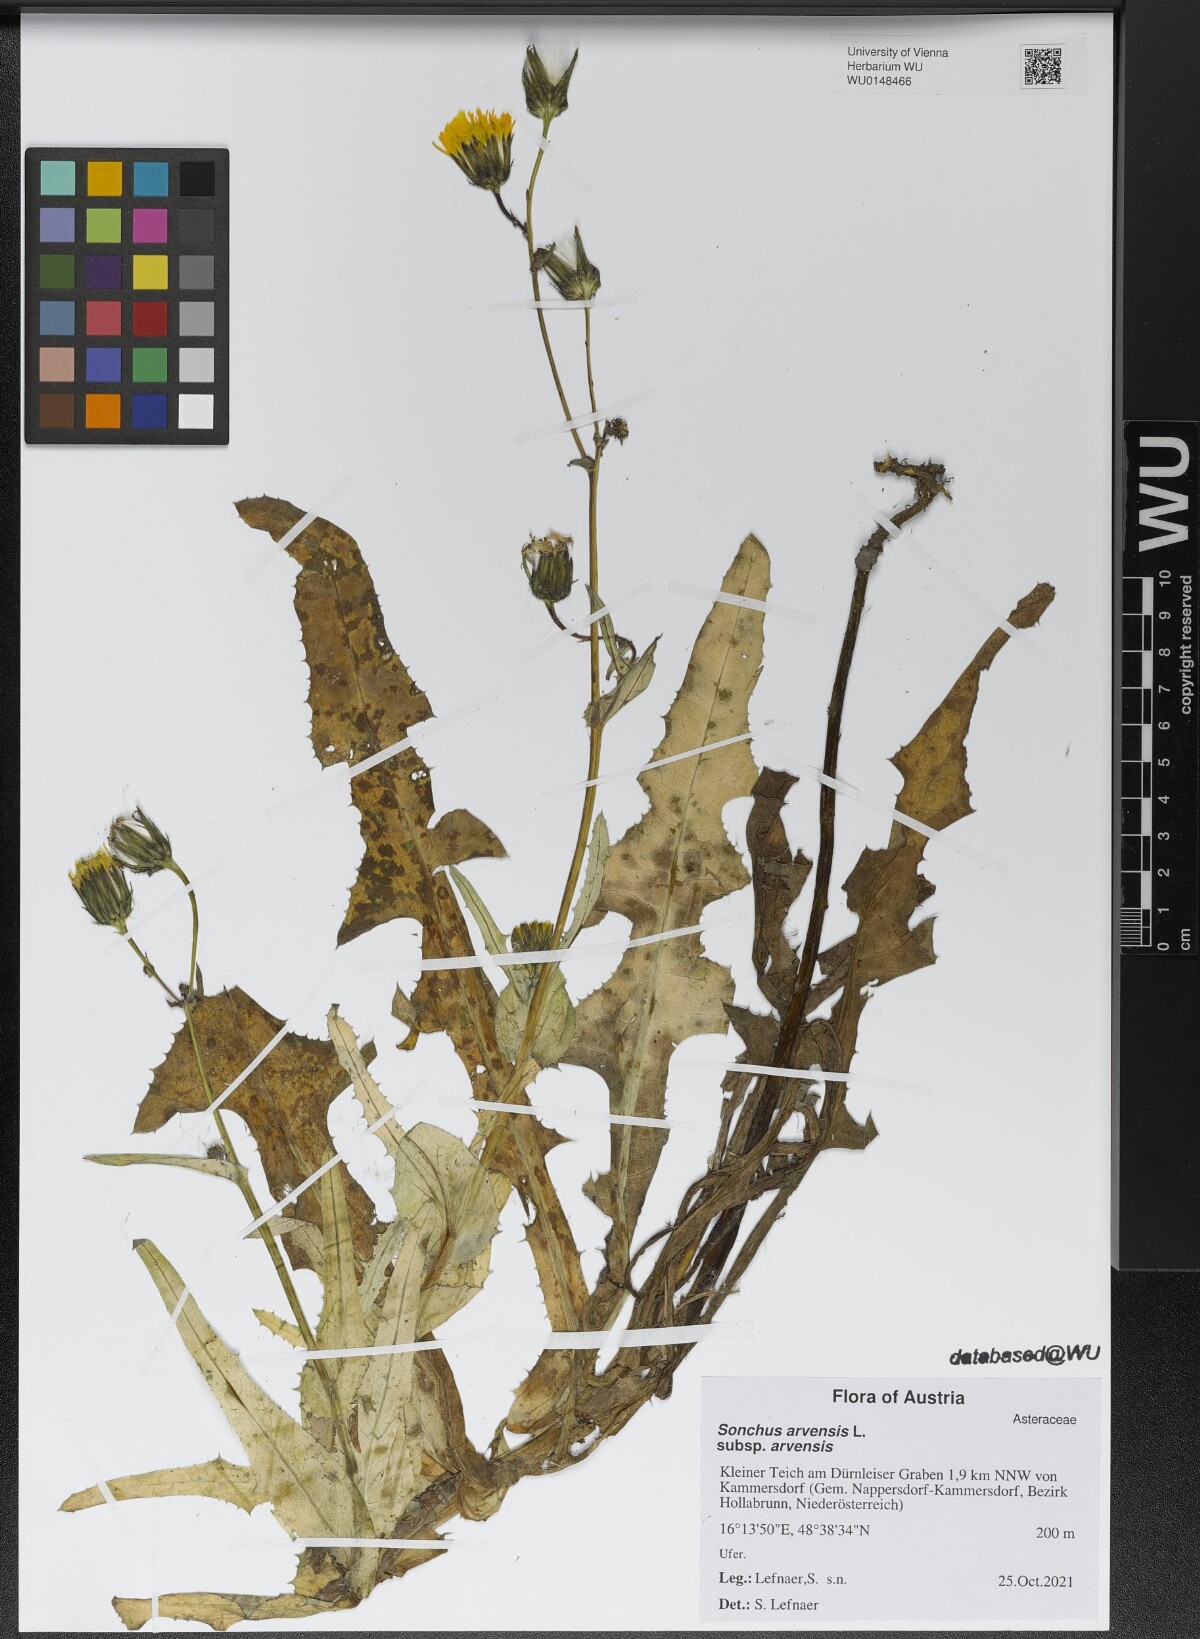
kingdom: Plantae
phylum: Tracheophyta
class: Magnoliopsida
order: Asterales
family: Asteraceae
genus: Sonchus
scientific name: Sonchus arvensis
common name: Perennial sow-thistle
